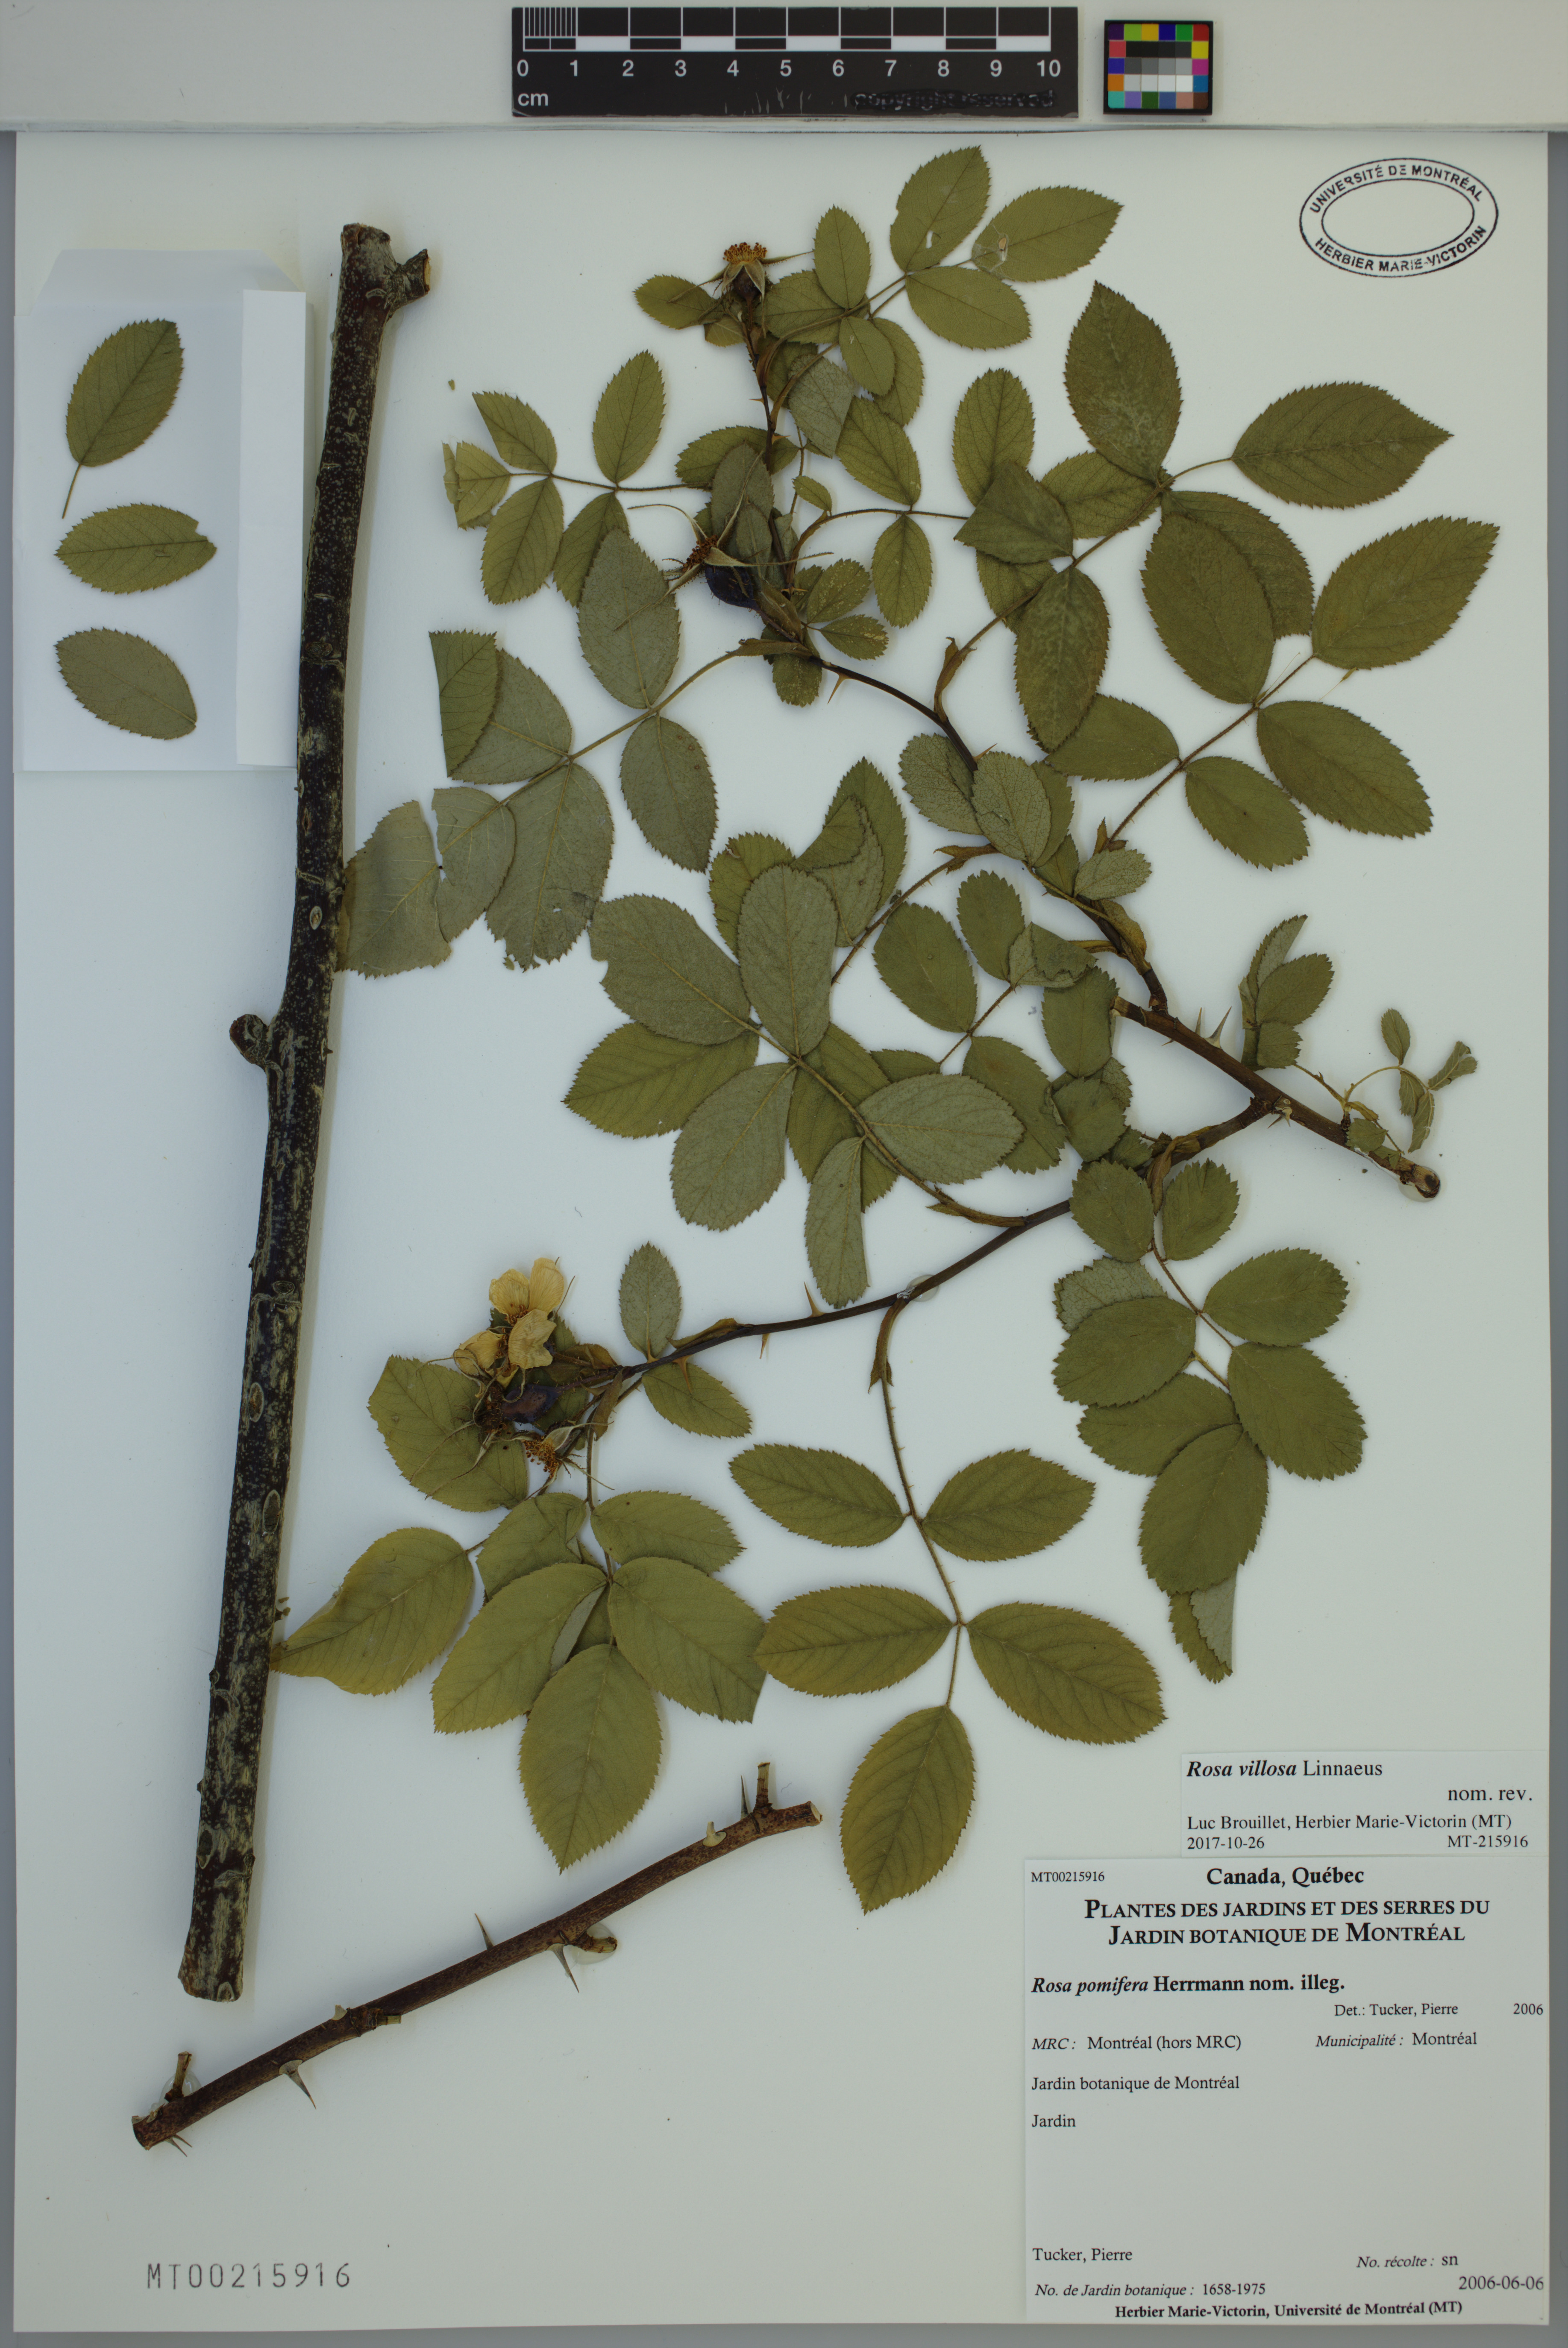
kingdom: Plantae
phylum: Tracheophyta
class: Magnoliopsida
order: Rosales
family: Rosaceae
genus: Rosa
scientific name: Rosa villosa
